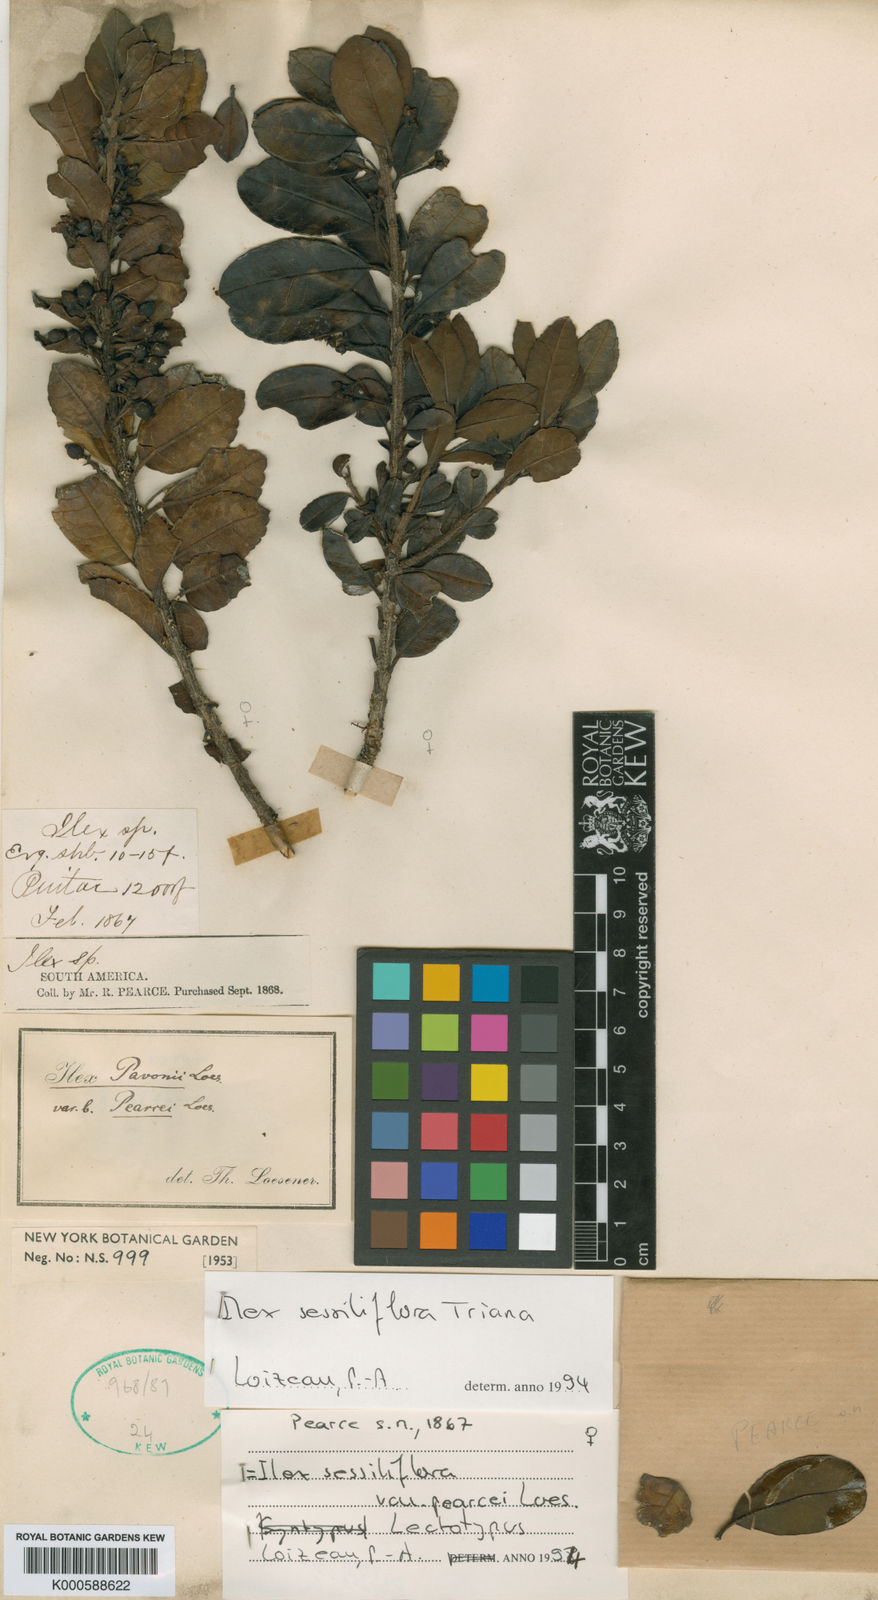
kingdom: Plantae
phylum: Tracheophyta
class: Magnoliopsida
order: Aquifoliales
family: Aquifoliaceae
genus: Ilex
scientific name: Ilex sessiliflora
